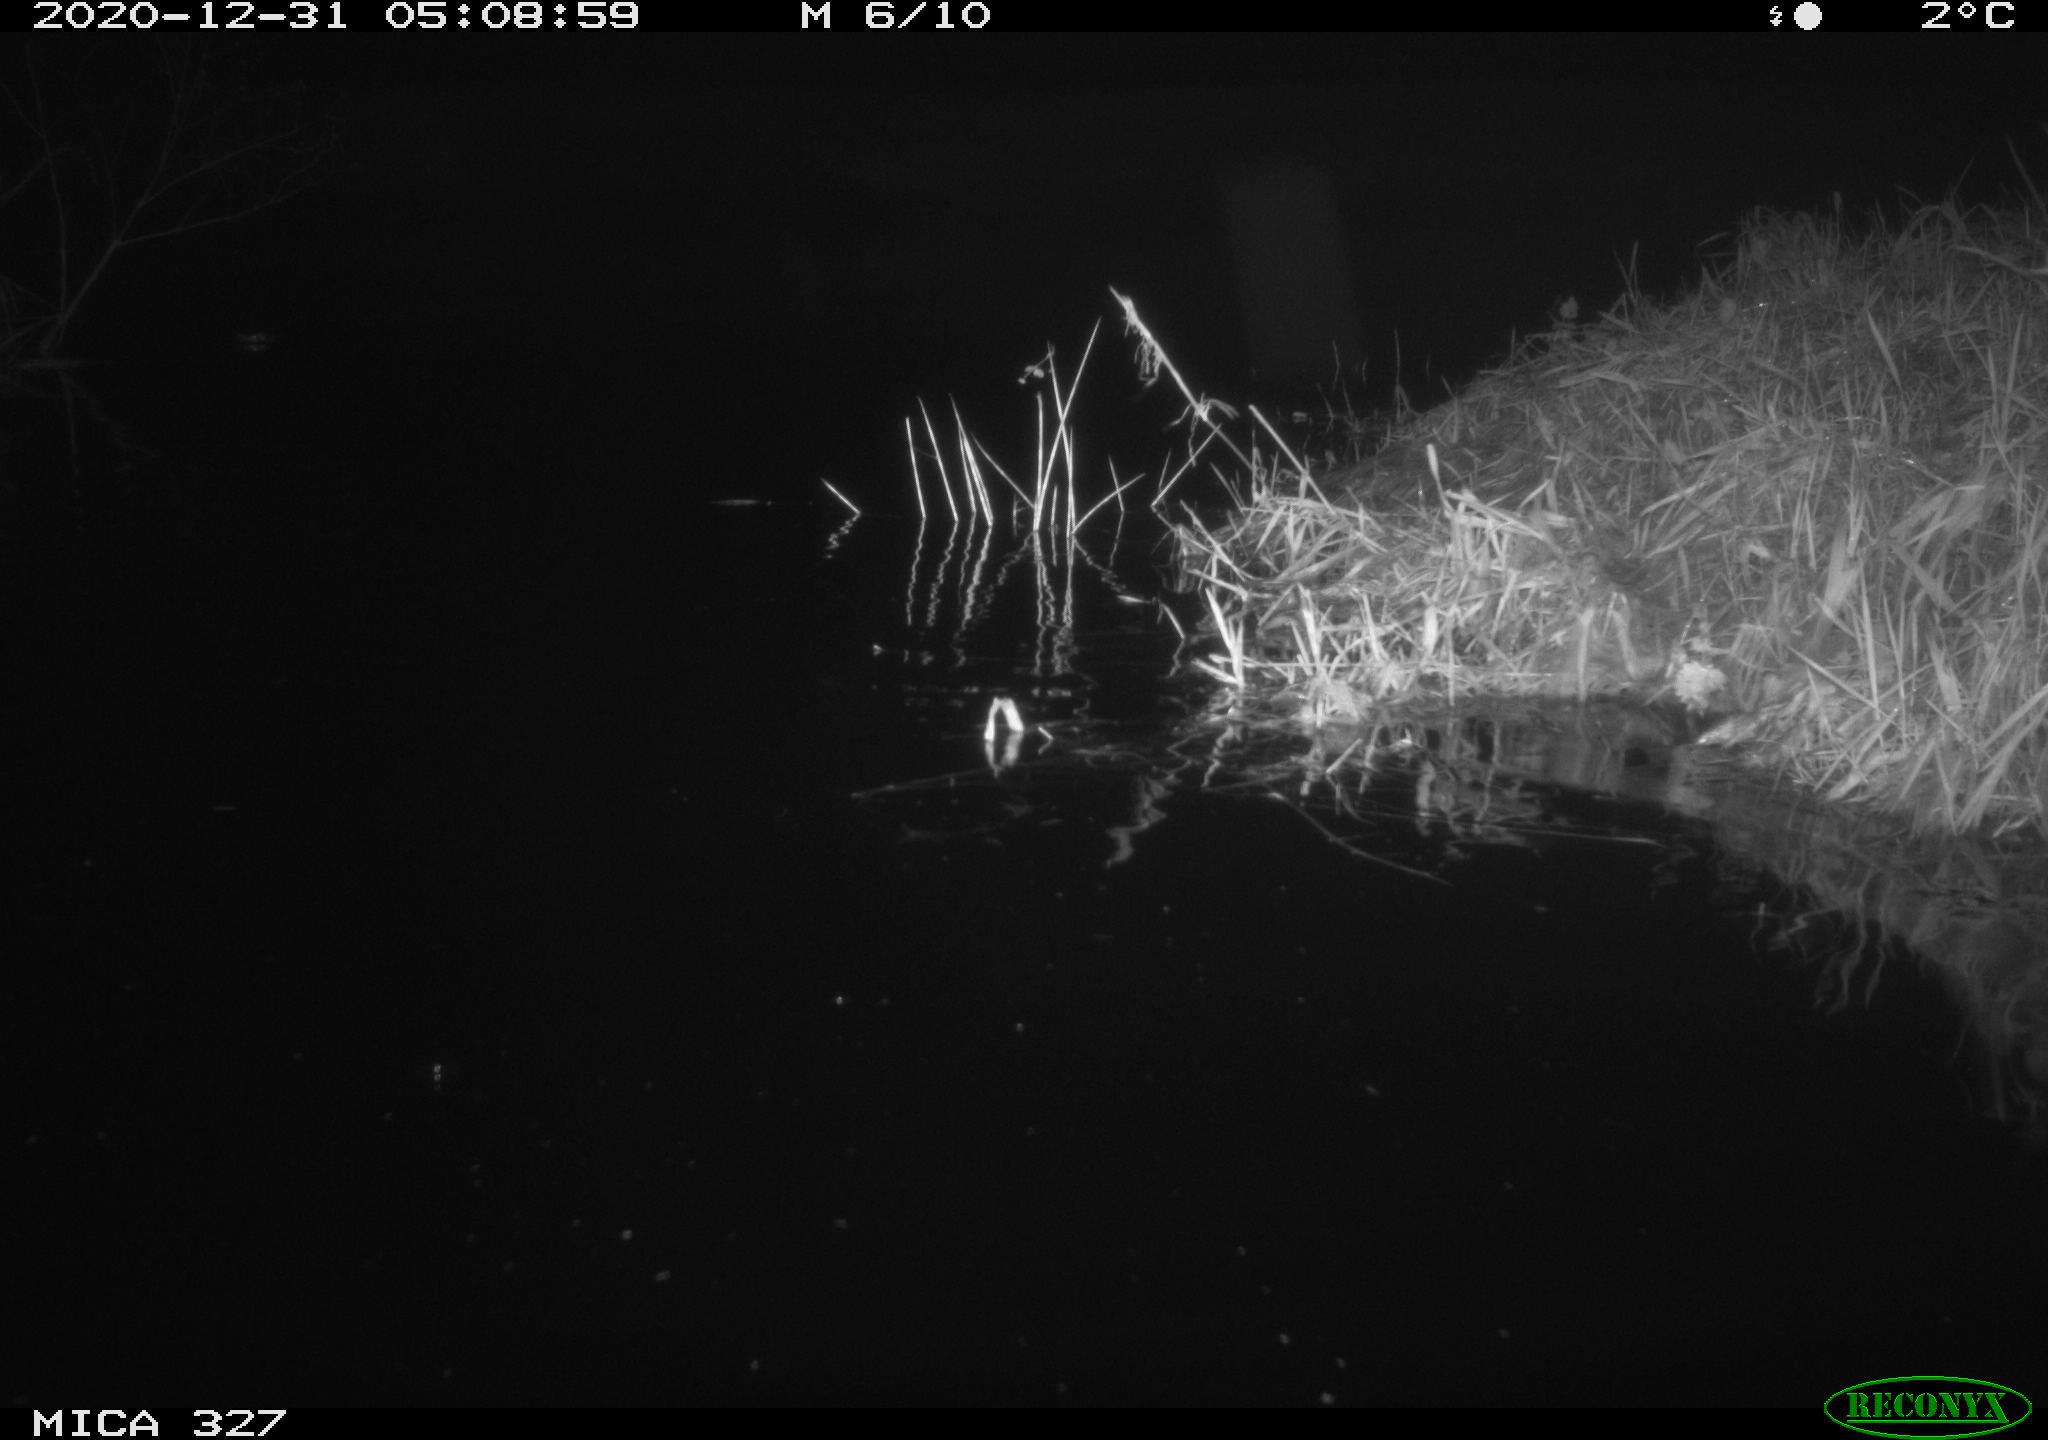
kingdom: Animalia
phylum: Chordata
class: Mammalia
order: Rodentia
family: Cricetidae
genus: Ondatra
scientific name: Ondatra zibethicus
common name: Muskrat
